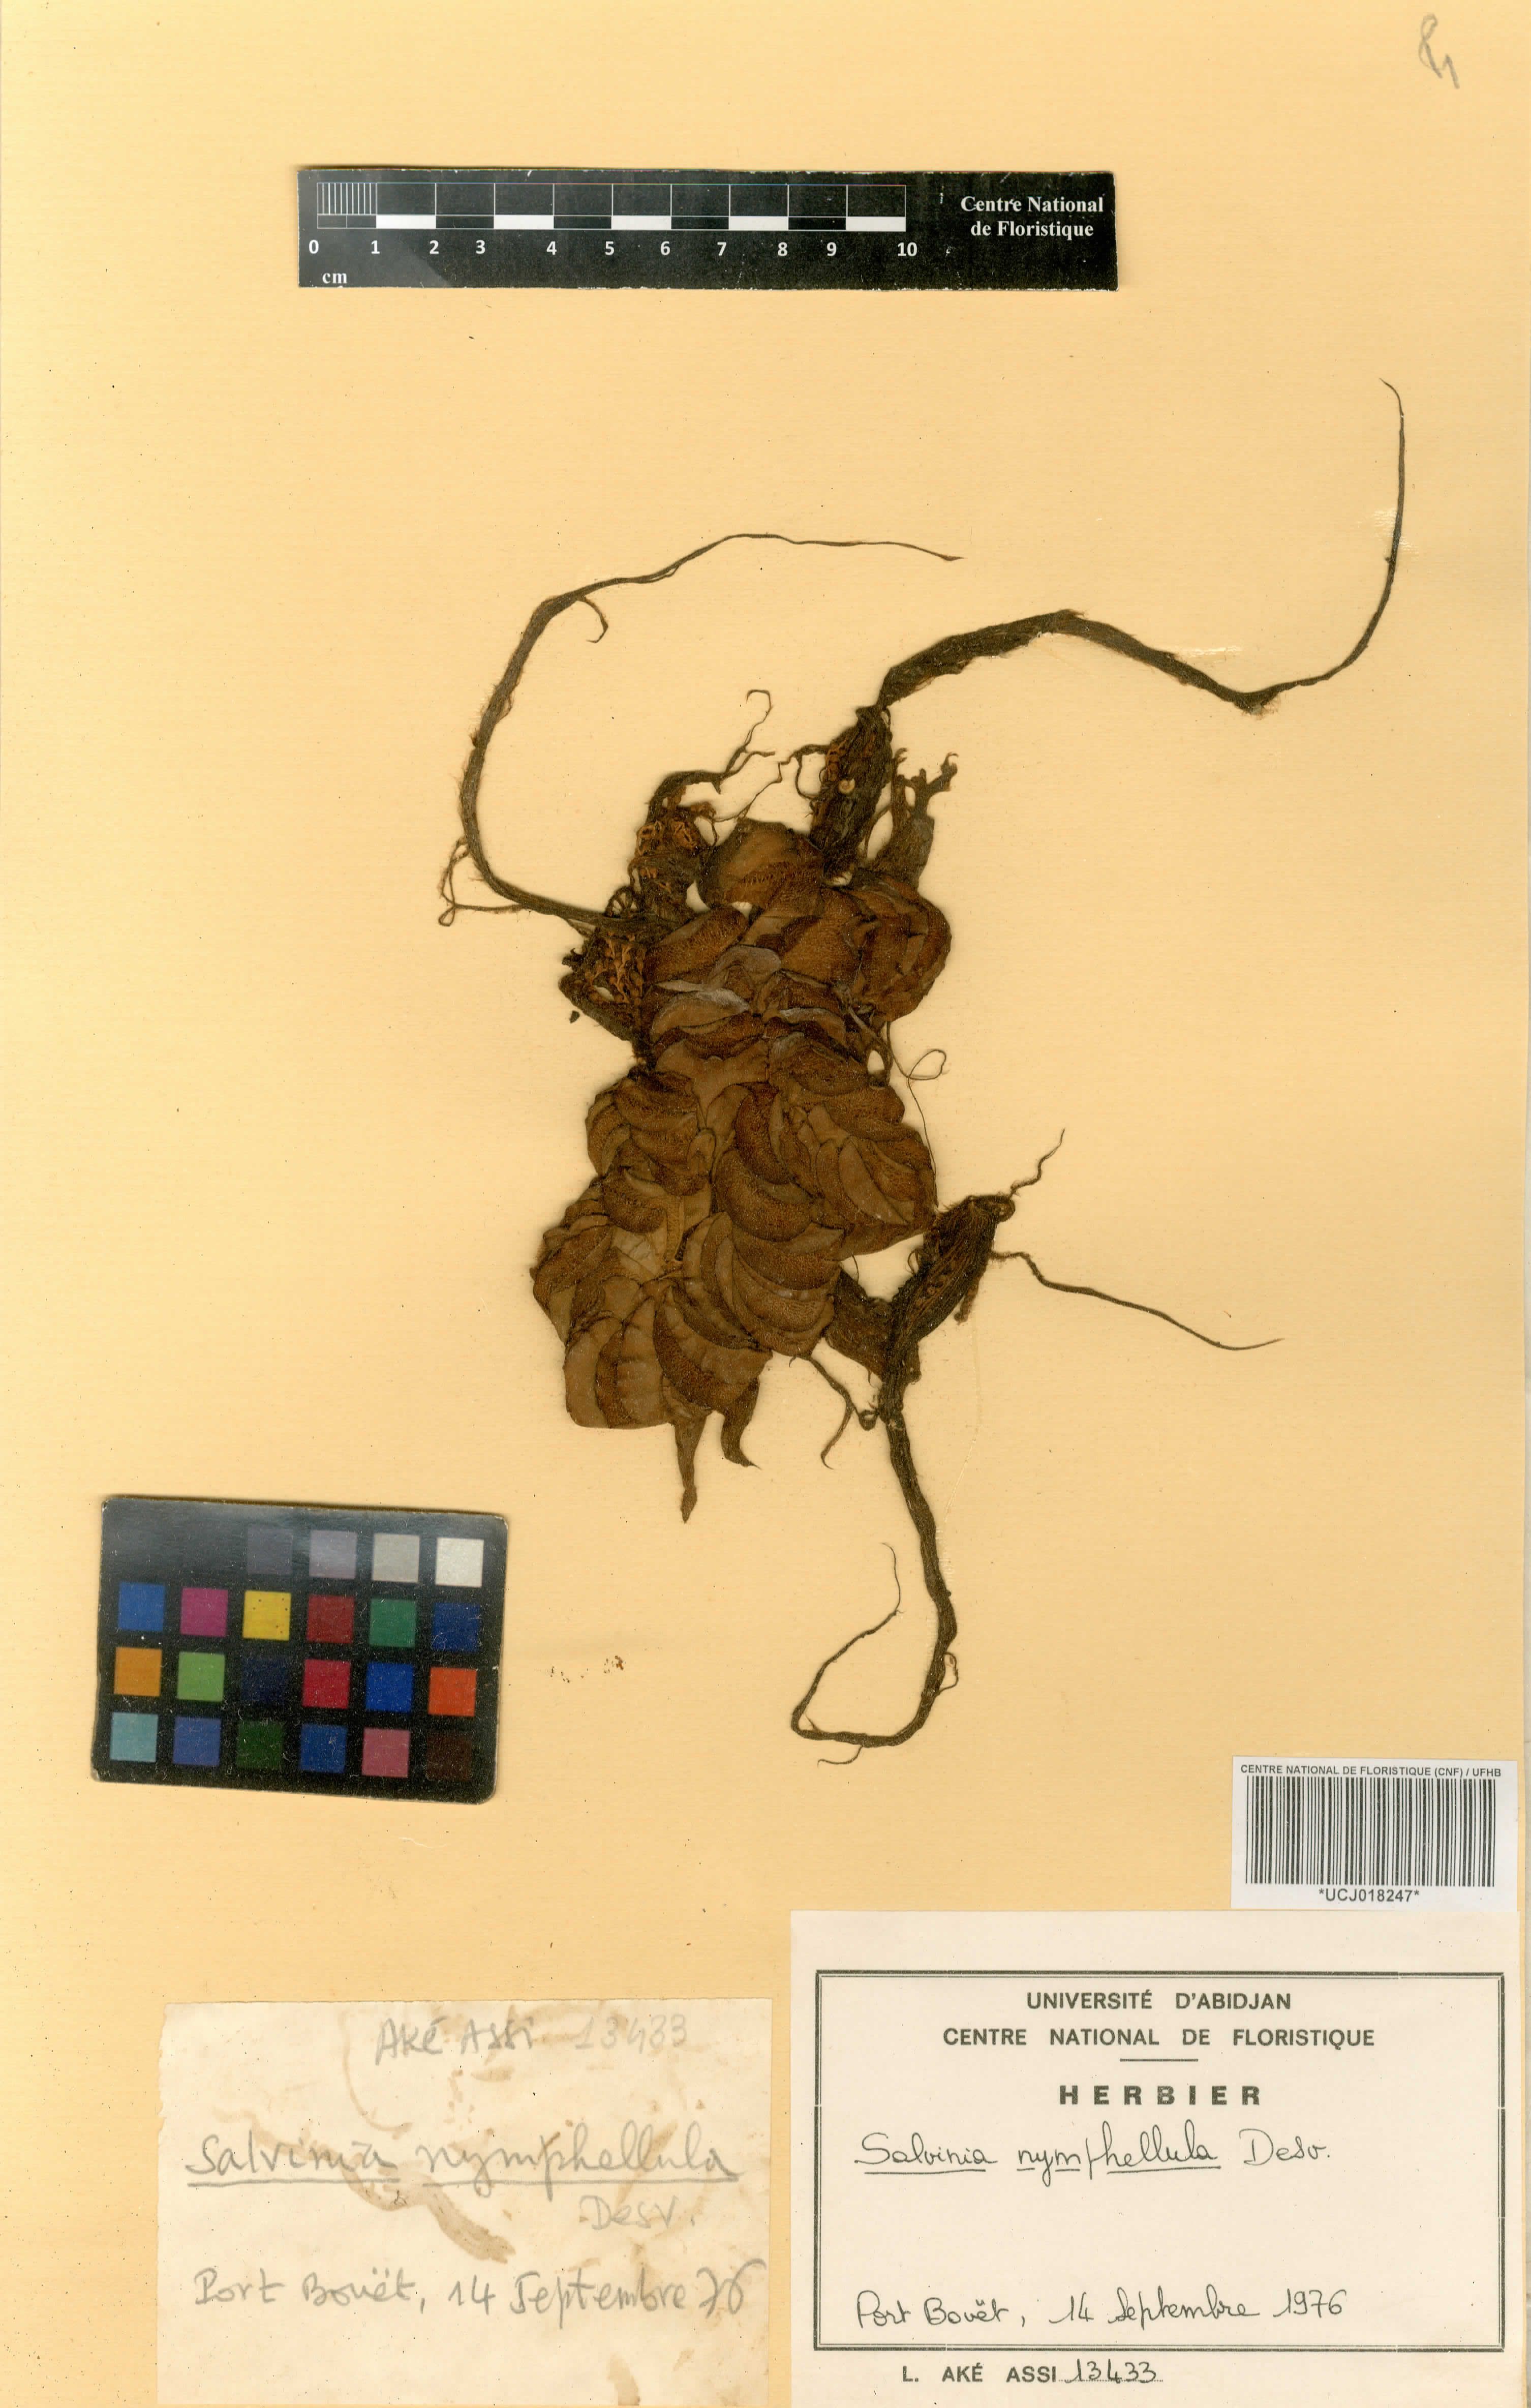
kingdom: Plantae
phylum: Tracheophyta
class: Polypodiopsida
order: Salviniales
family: Salviniaceae
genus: Salvinia
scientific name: Salvinia nymphellula
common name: Floating fern
